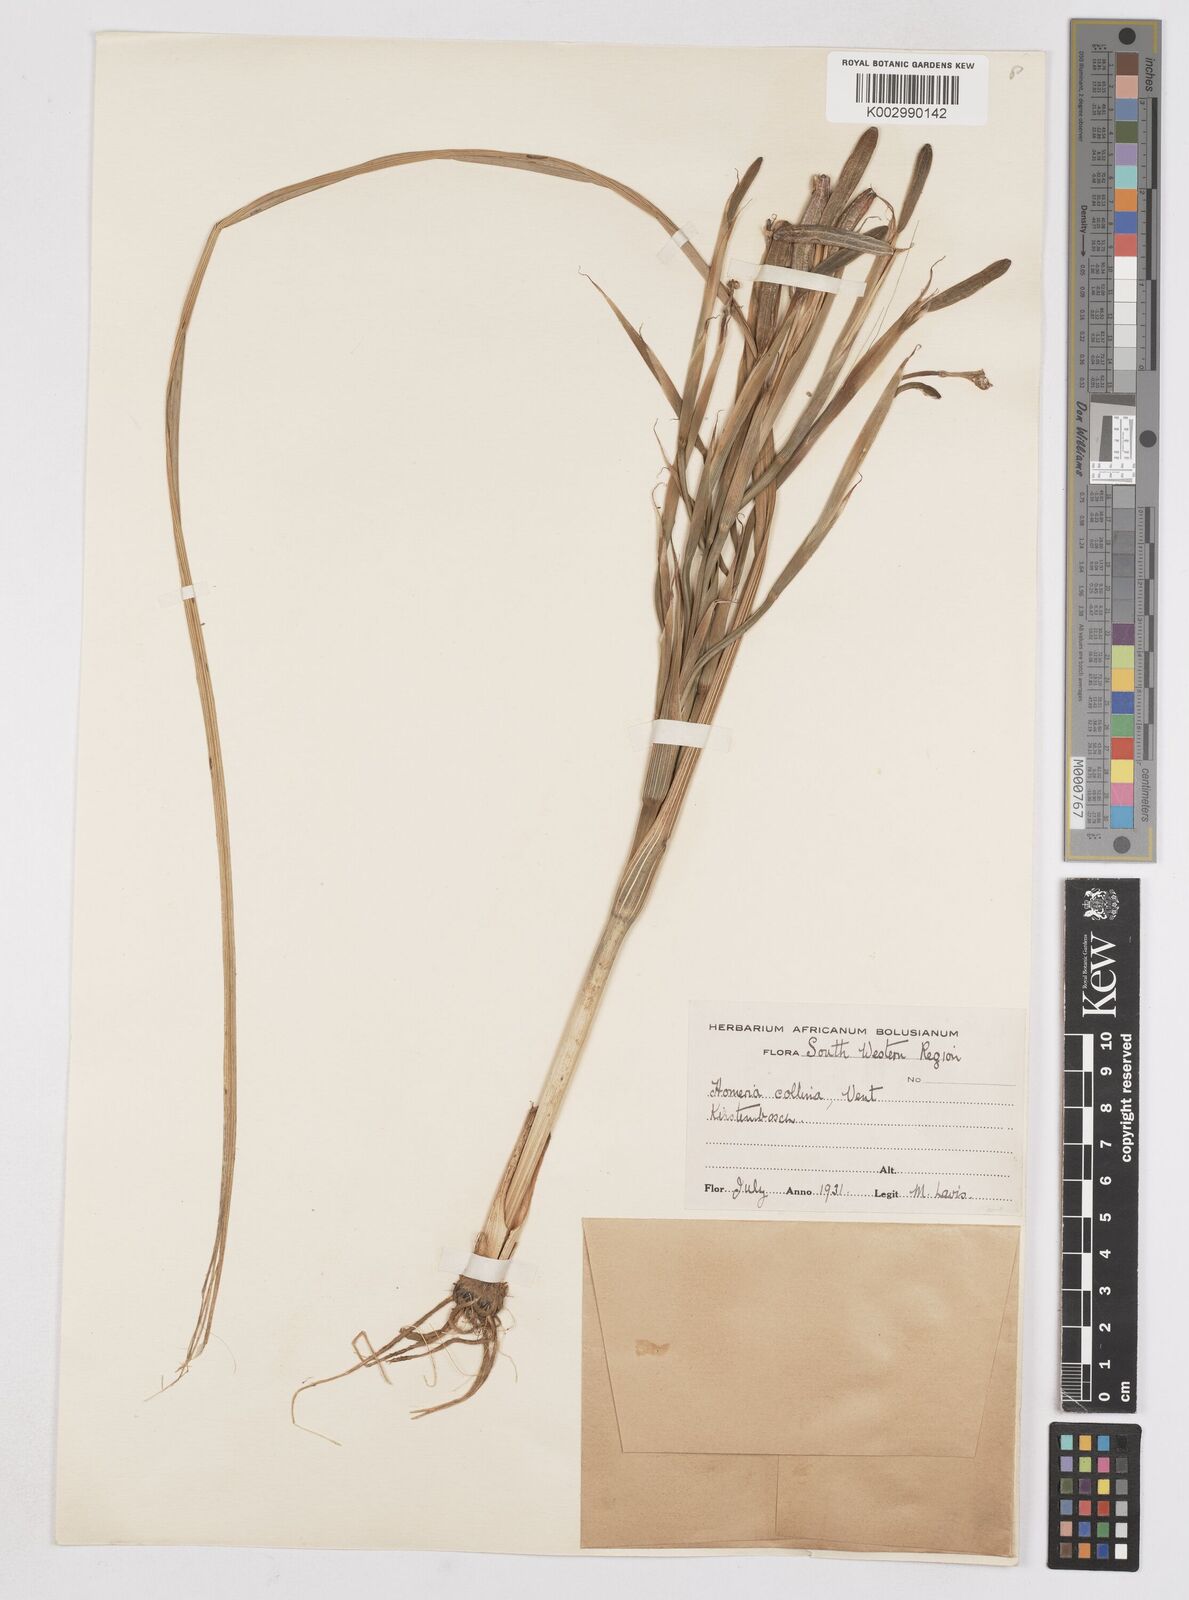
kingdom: Plantae
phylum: Tracheophyta
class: Liliopsida
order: Asparagales
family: Iridaceae
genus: Moraea
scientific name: Moraea collina
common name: Cape-tulip
